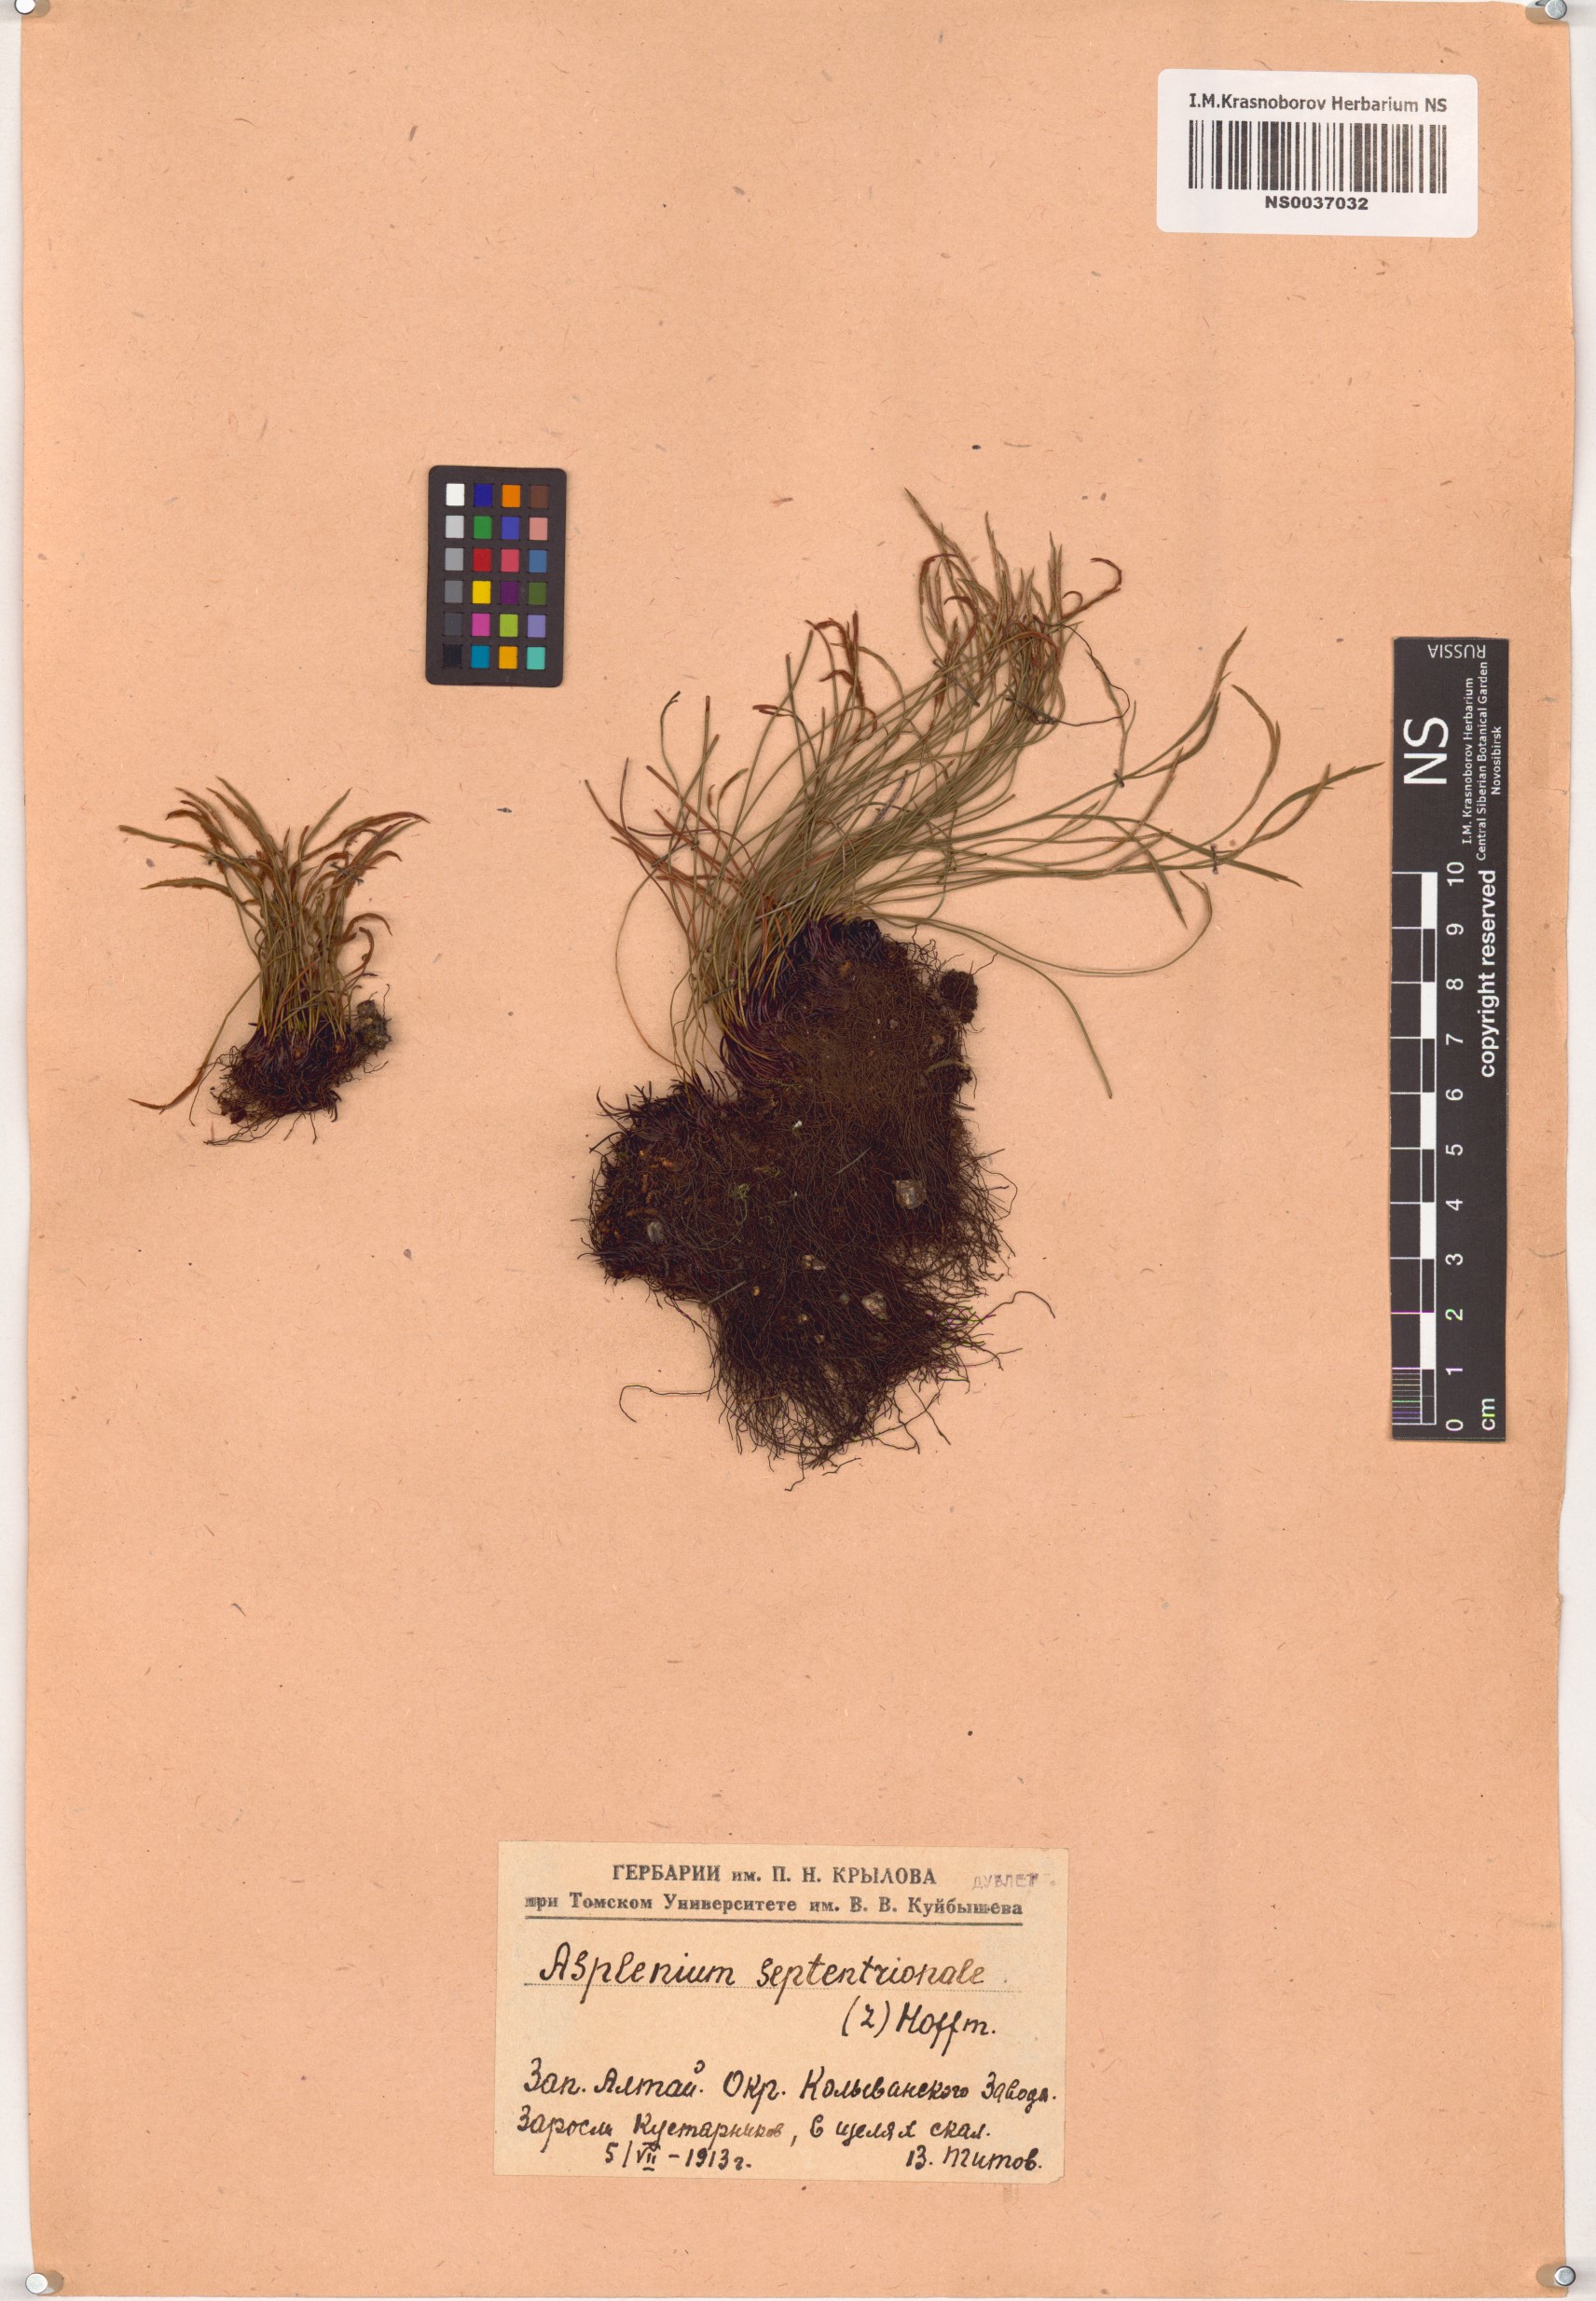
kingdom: Plantae
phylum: Tracheophyta
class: Polypodiopsida
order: Polypodiales
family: Aspleniaceae
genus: Asplenium
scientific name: Asplenium septentrionale
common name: Forked spleenwort
